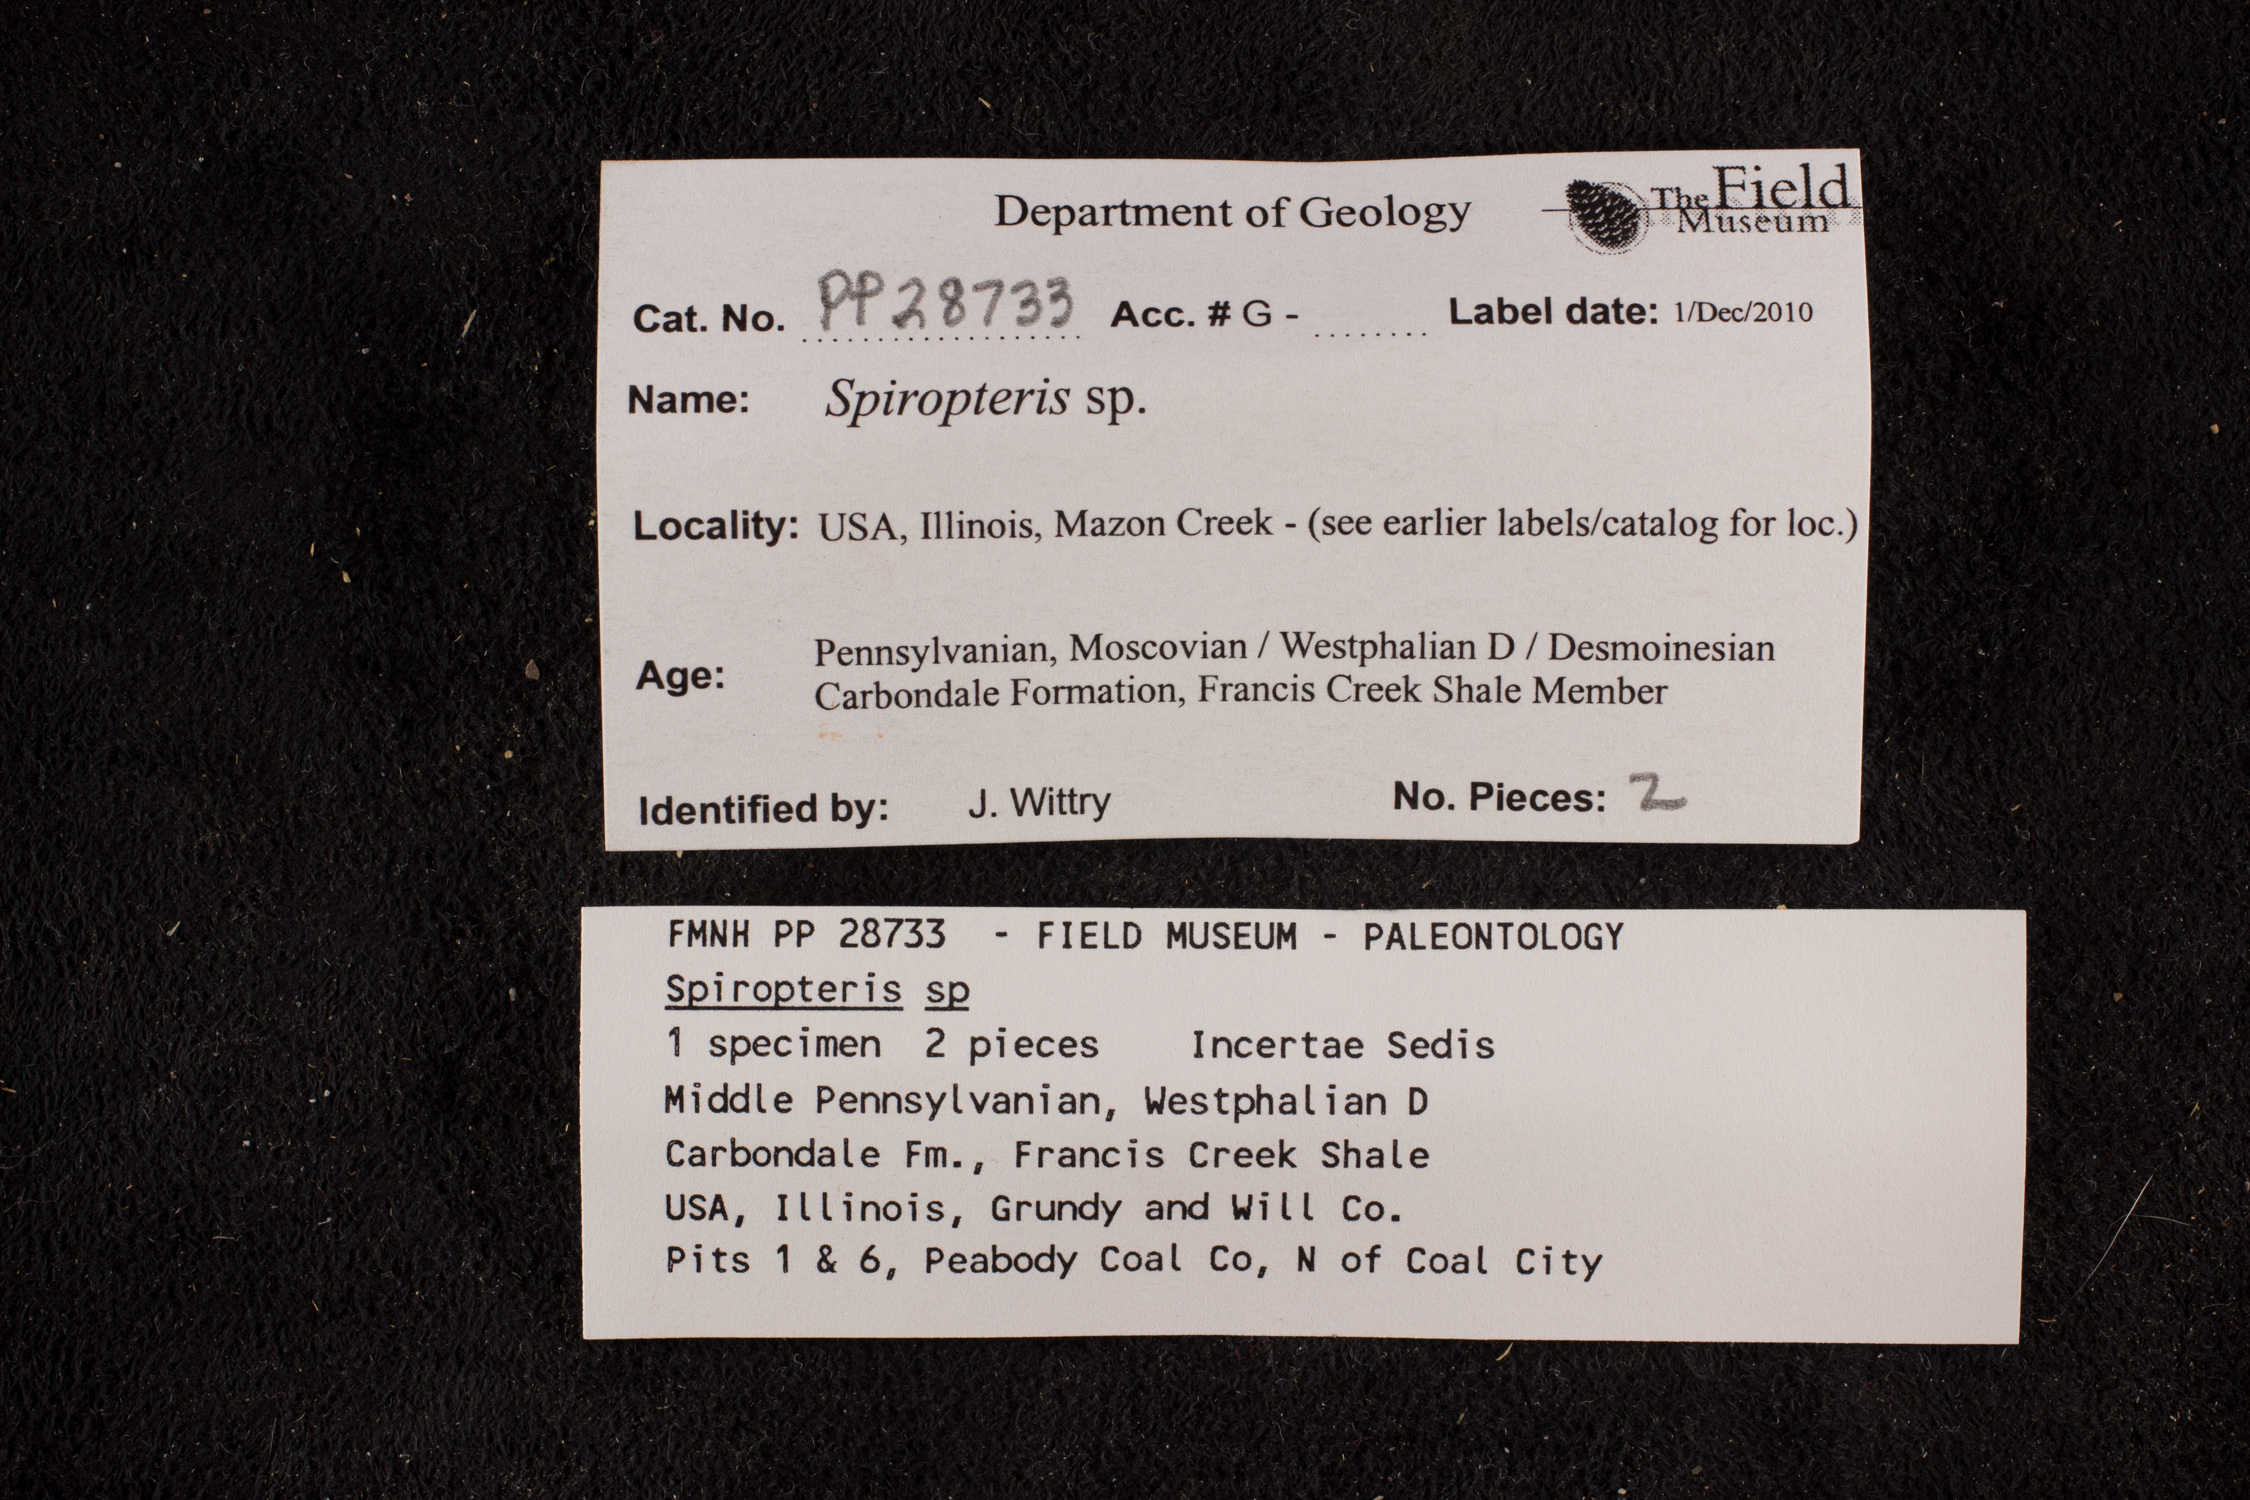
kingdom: Plantae
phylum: Tracheophyta
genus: Spiropteris
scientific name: Spiropteris
